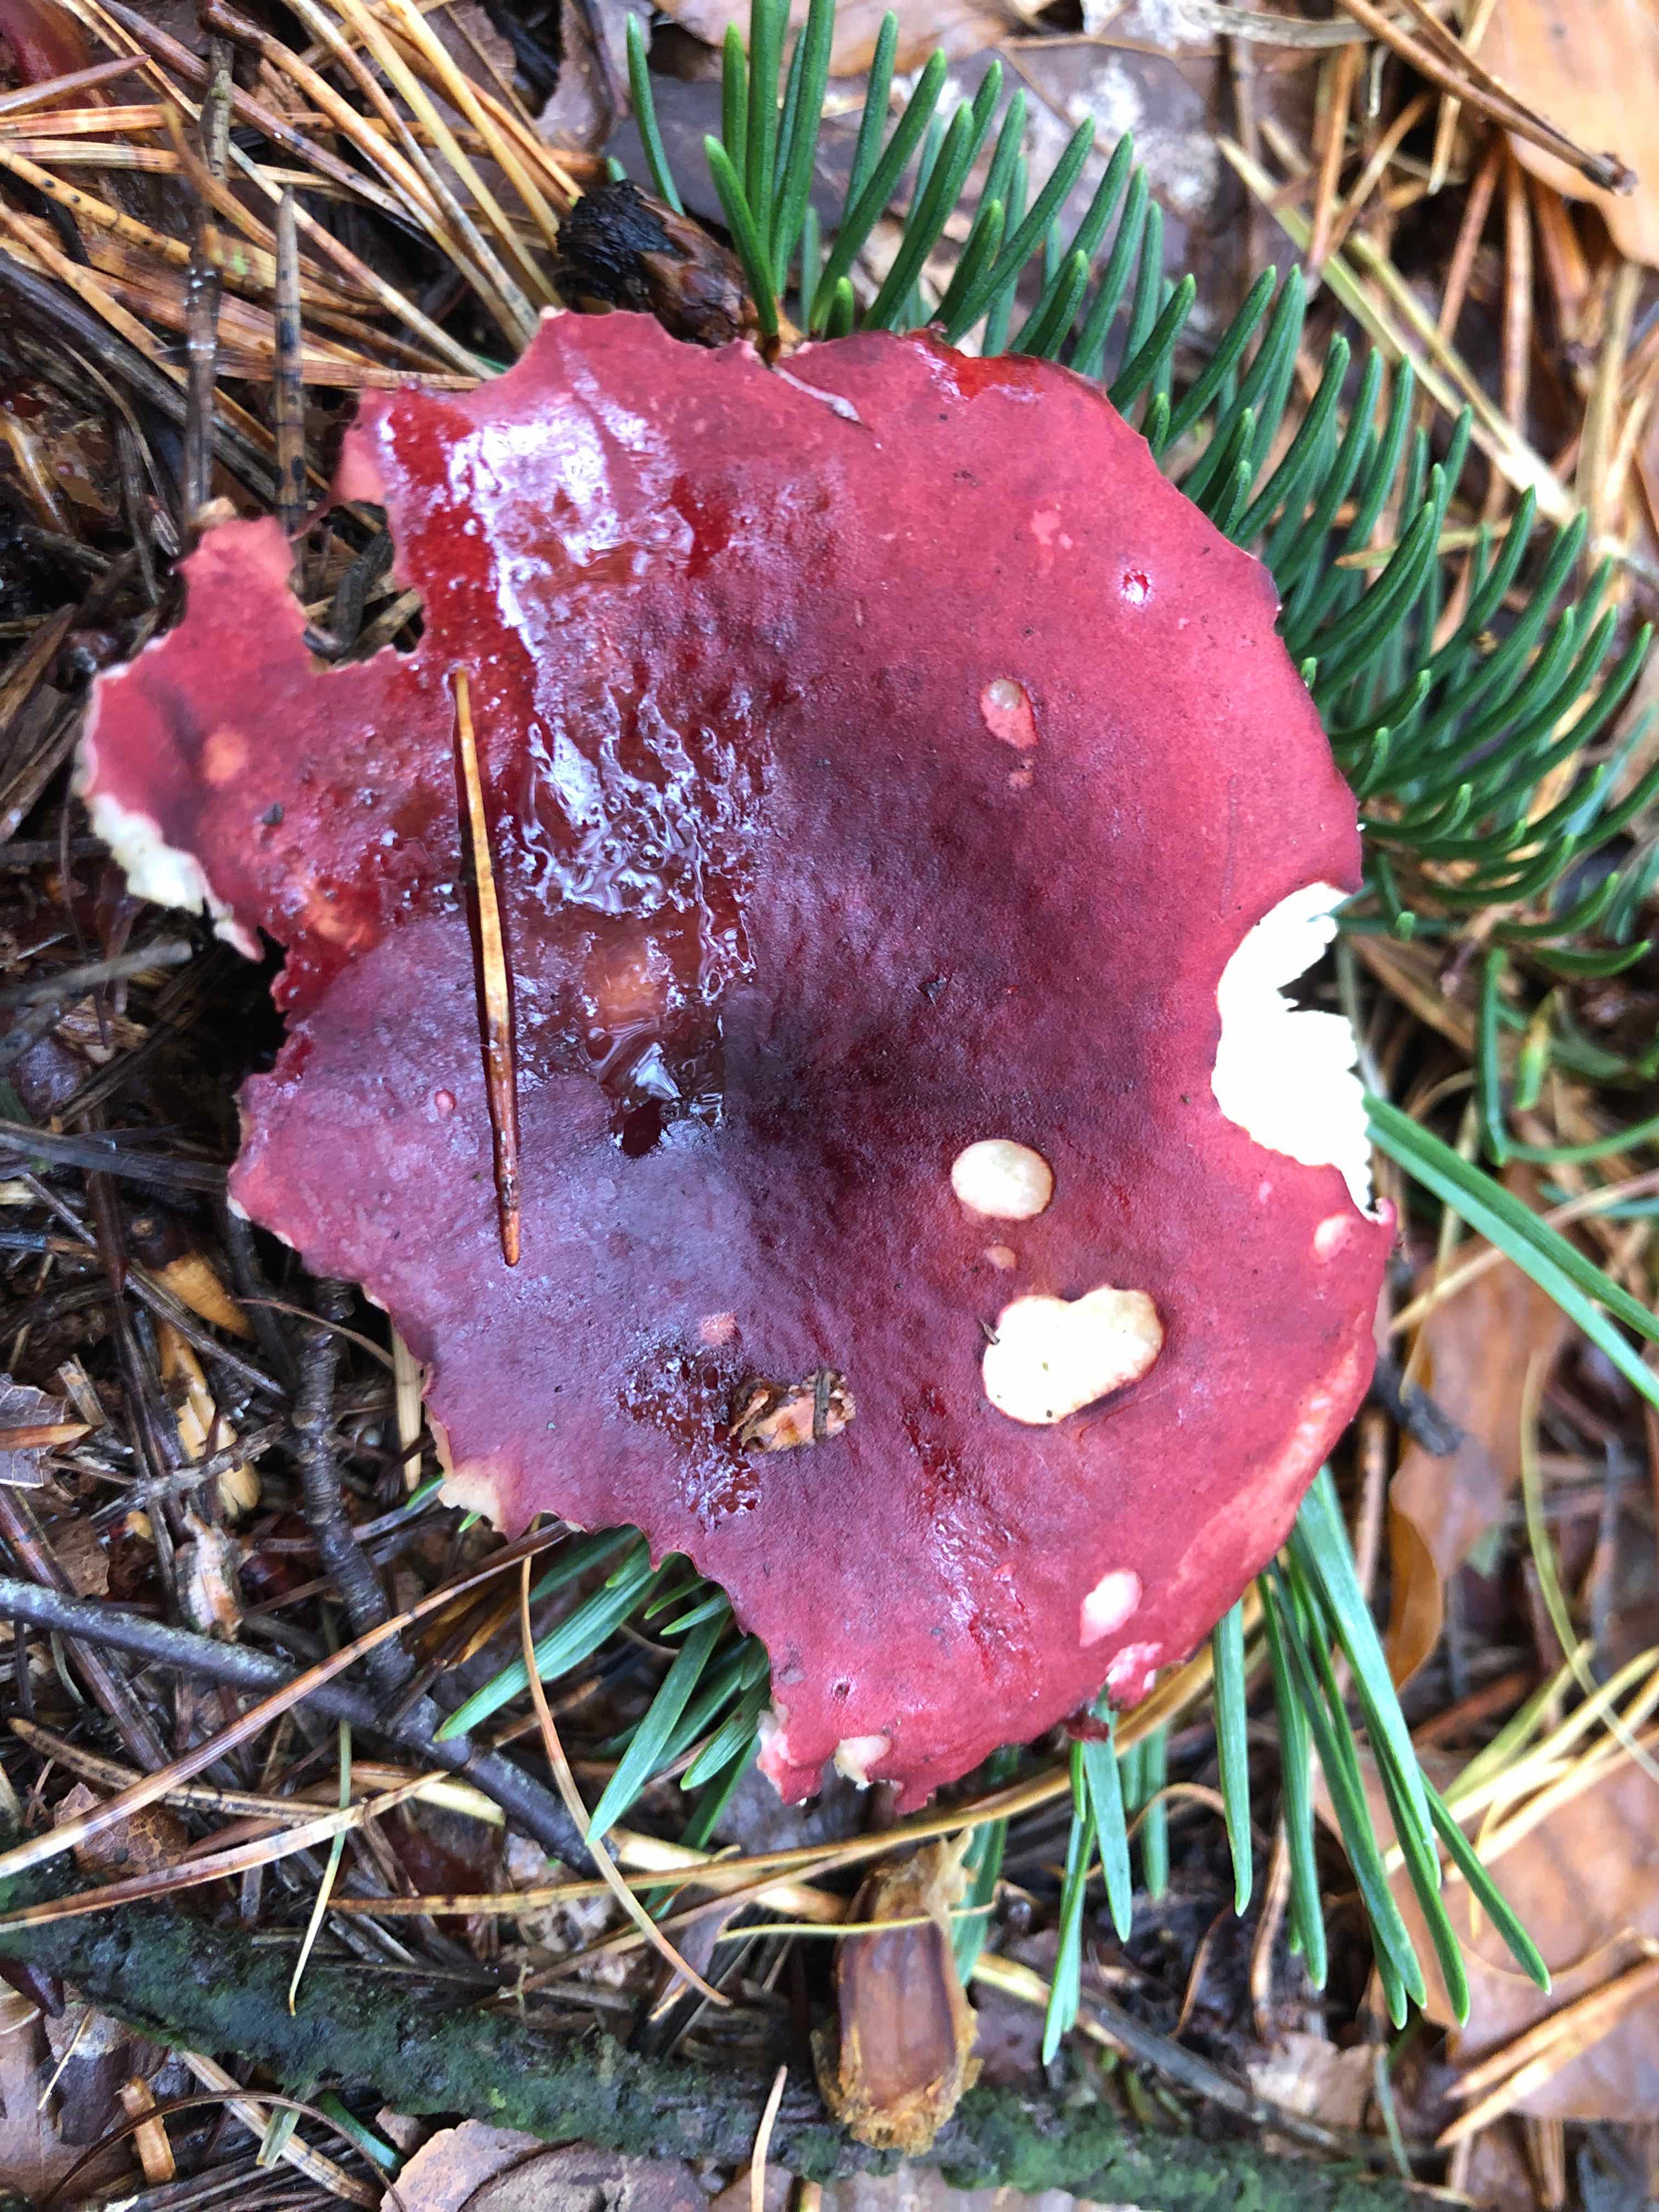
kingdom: Fungi
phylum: Basidiomycota
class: Agaricomycetes
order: Russulales
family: Russulaceae
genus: Russula
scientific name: Russula xerampelina
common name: hummer-skørhat
